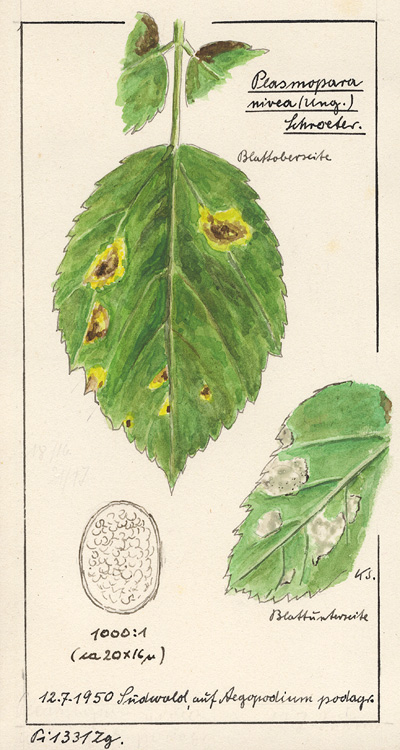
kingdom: Chromista
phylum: Oomycota
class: Peronosporea
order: Peronosporales
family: Peronosporaceae
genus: Peronospora
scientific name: Peronospora crustosa
